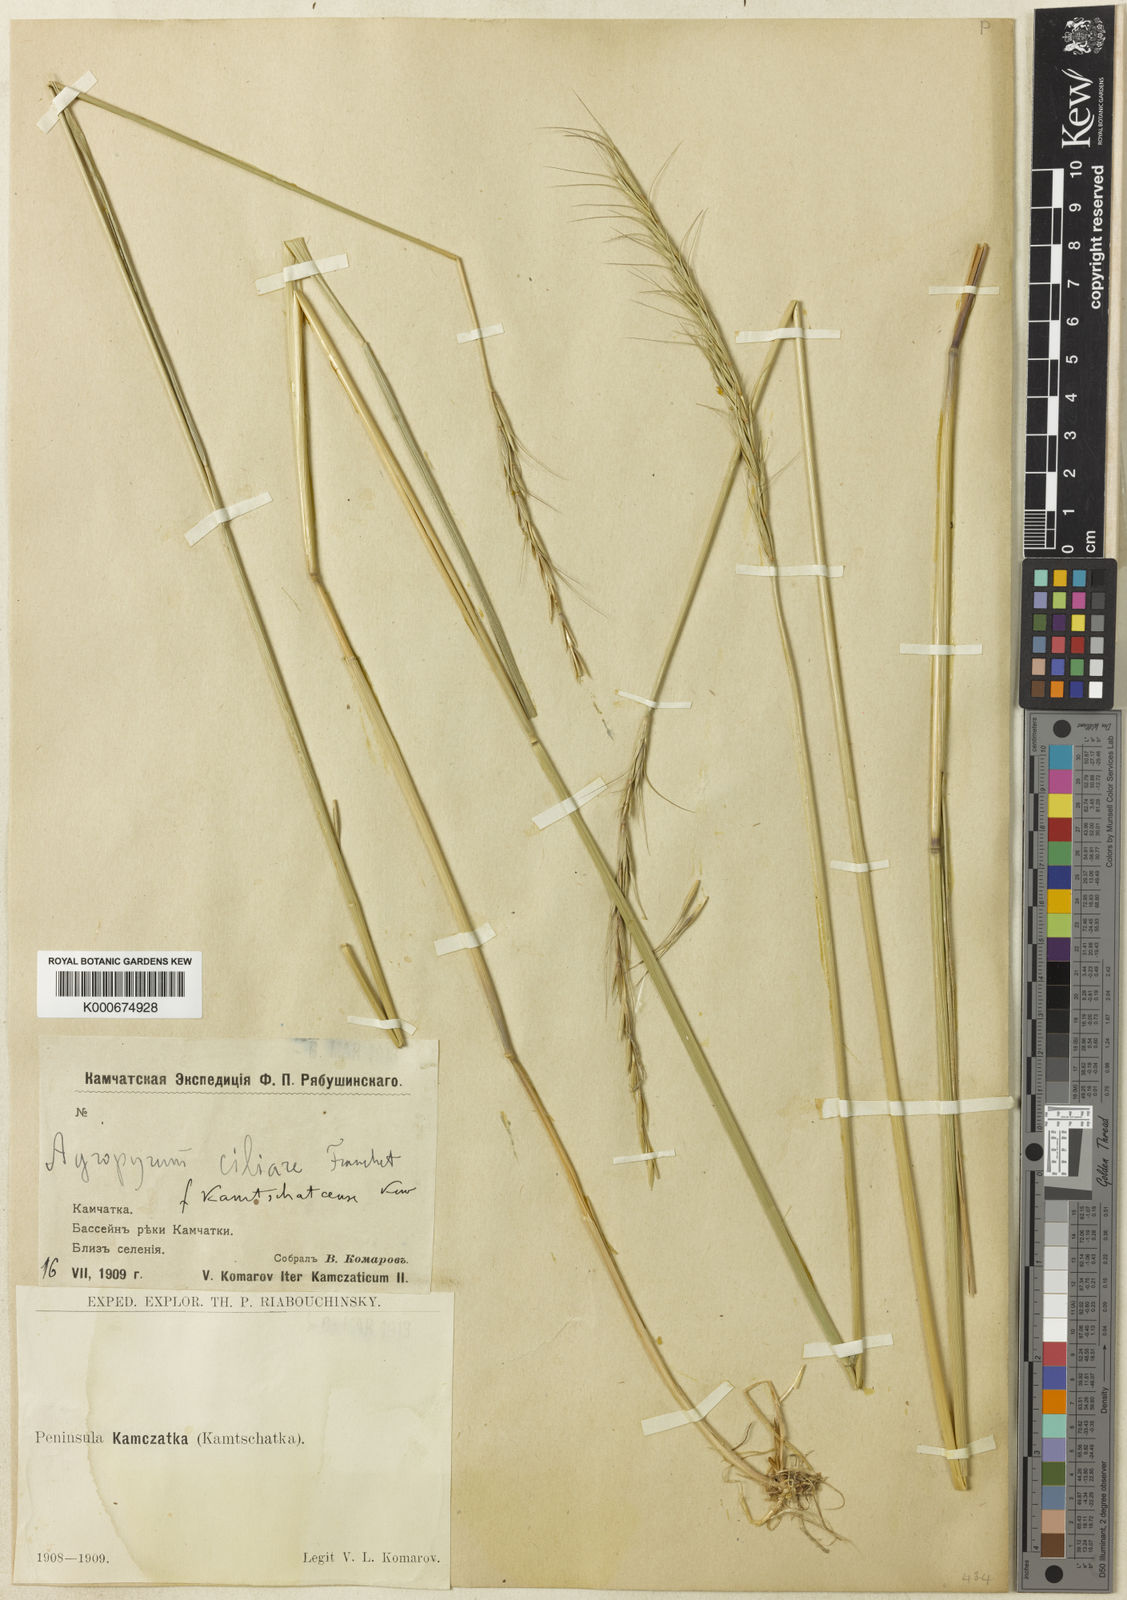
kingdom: Plantae
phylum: Tracheophyta
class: Liliopsida
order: Poales
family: Poaceae
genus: Elymus
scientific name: Elymus ciliaris
